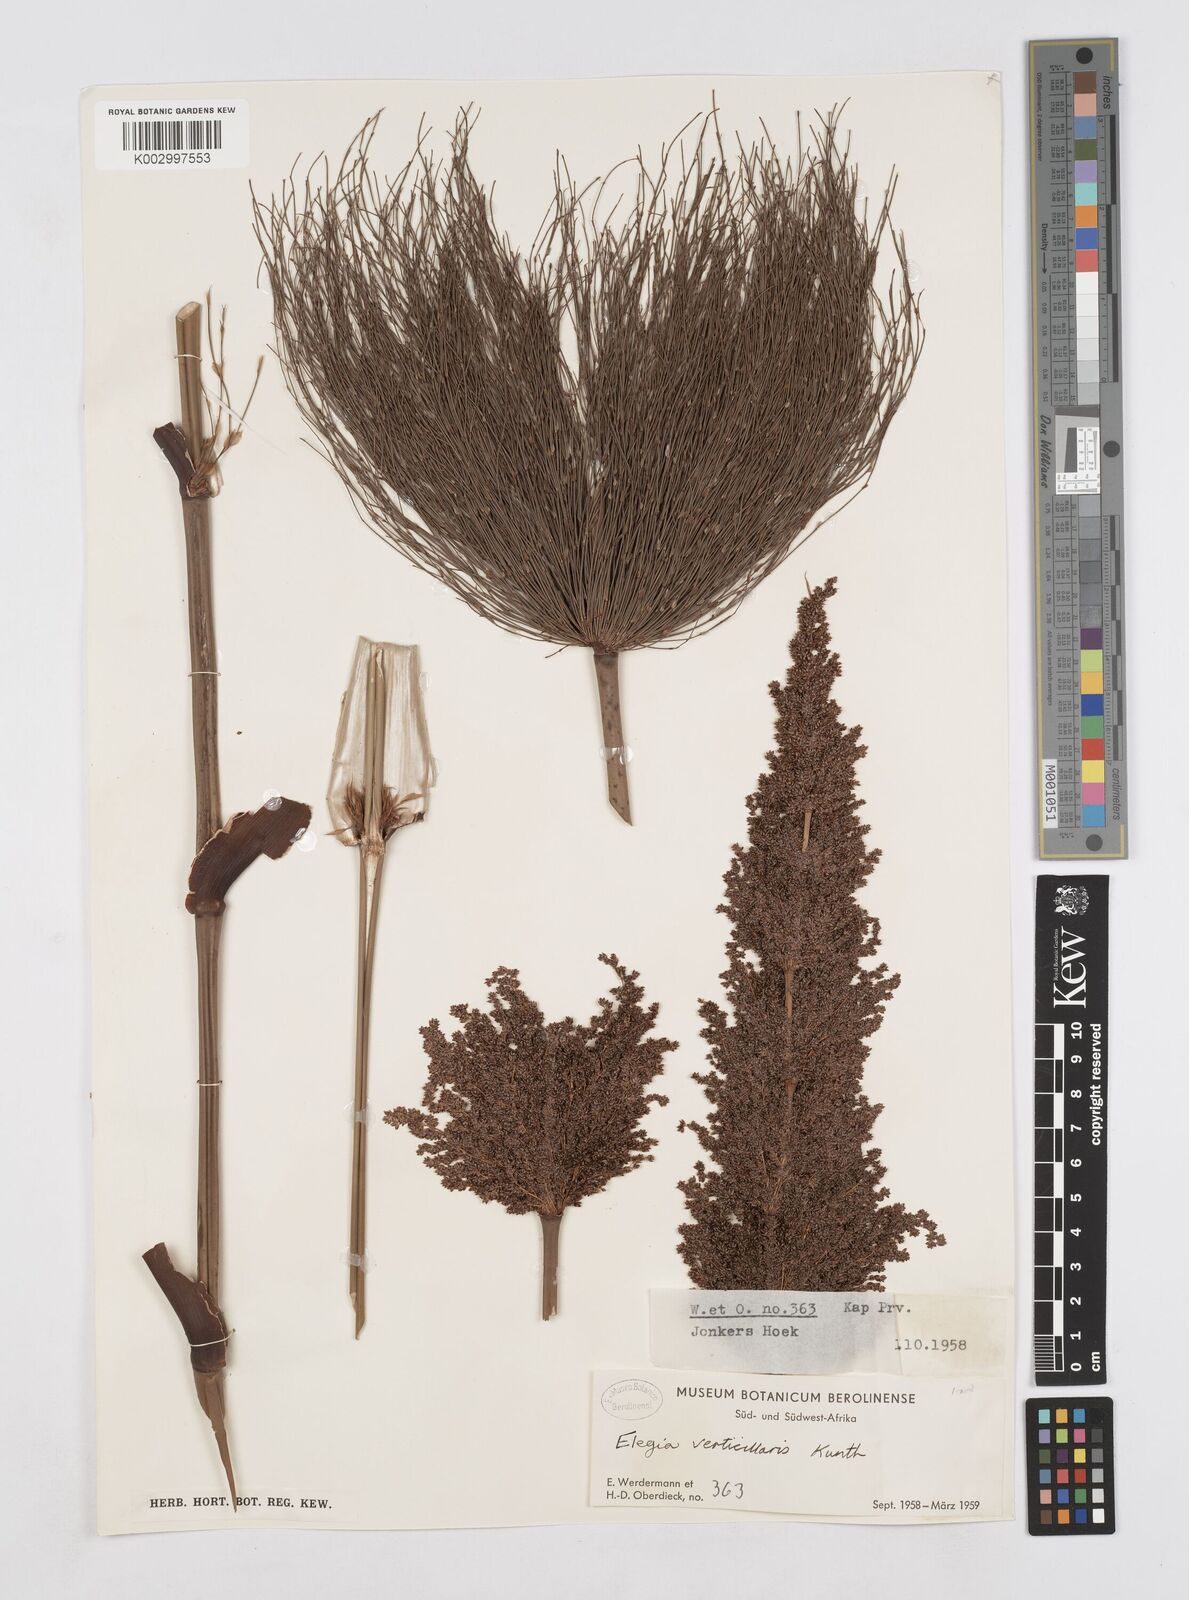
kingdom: Plantae
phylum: Tracheophyta
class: Liliopsida
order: Poales
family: Restionaceae
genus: Elegia
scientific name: Elegia capensis
